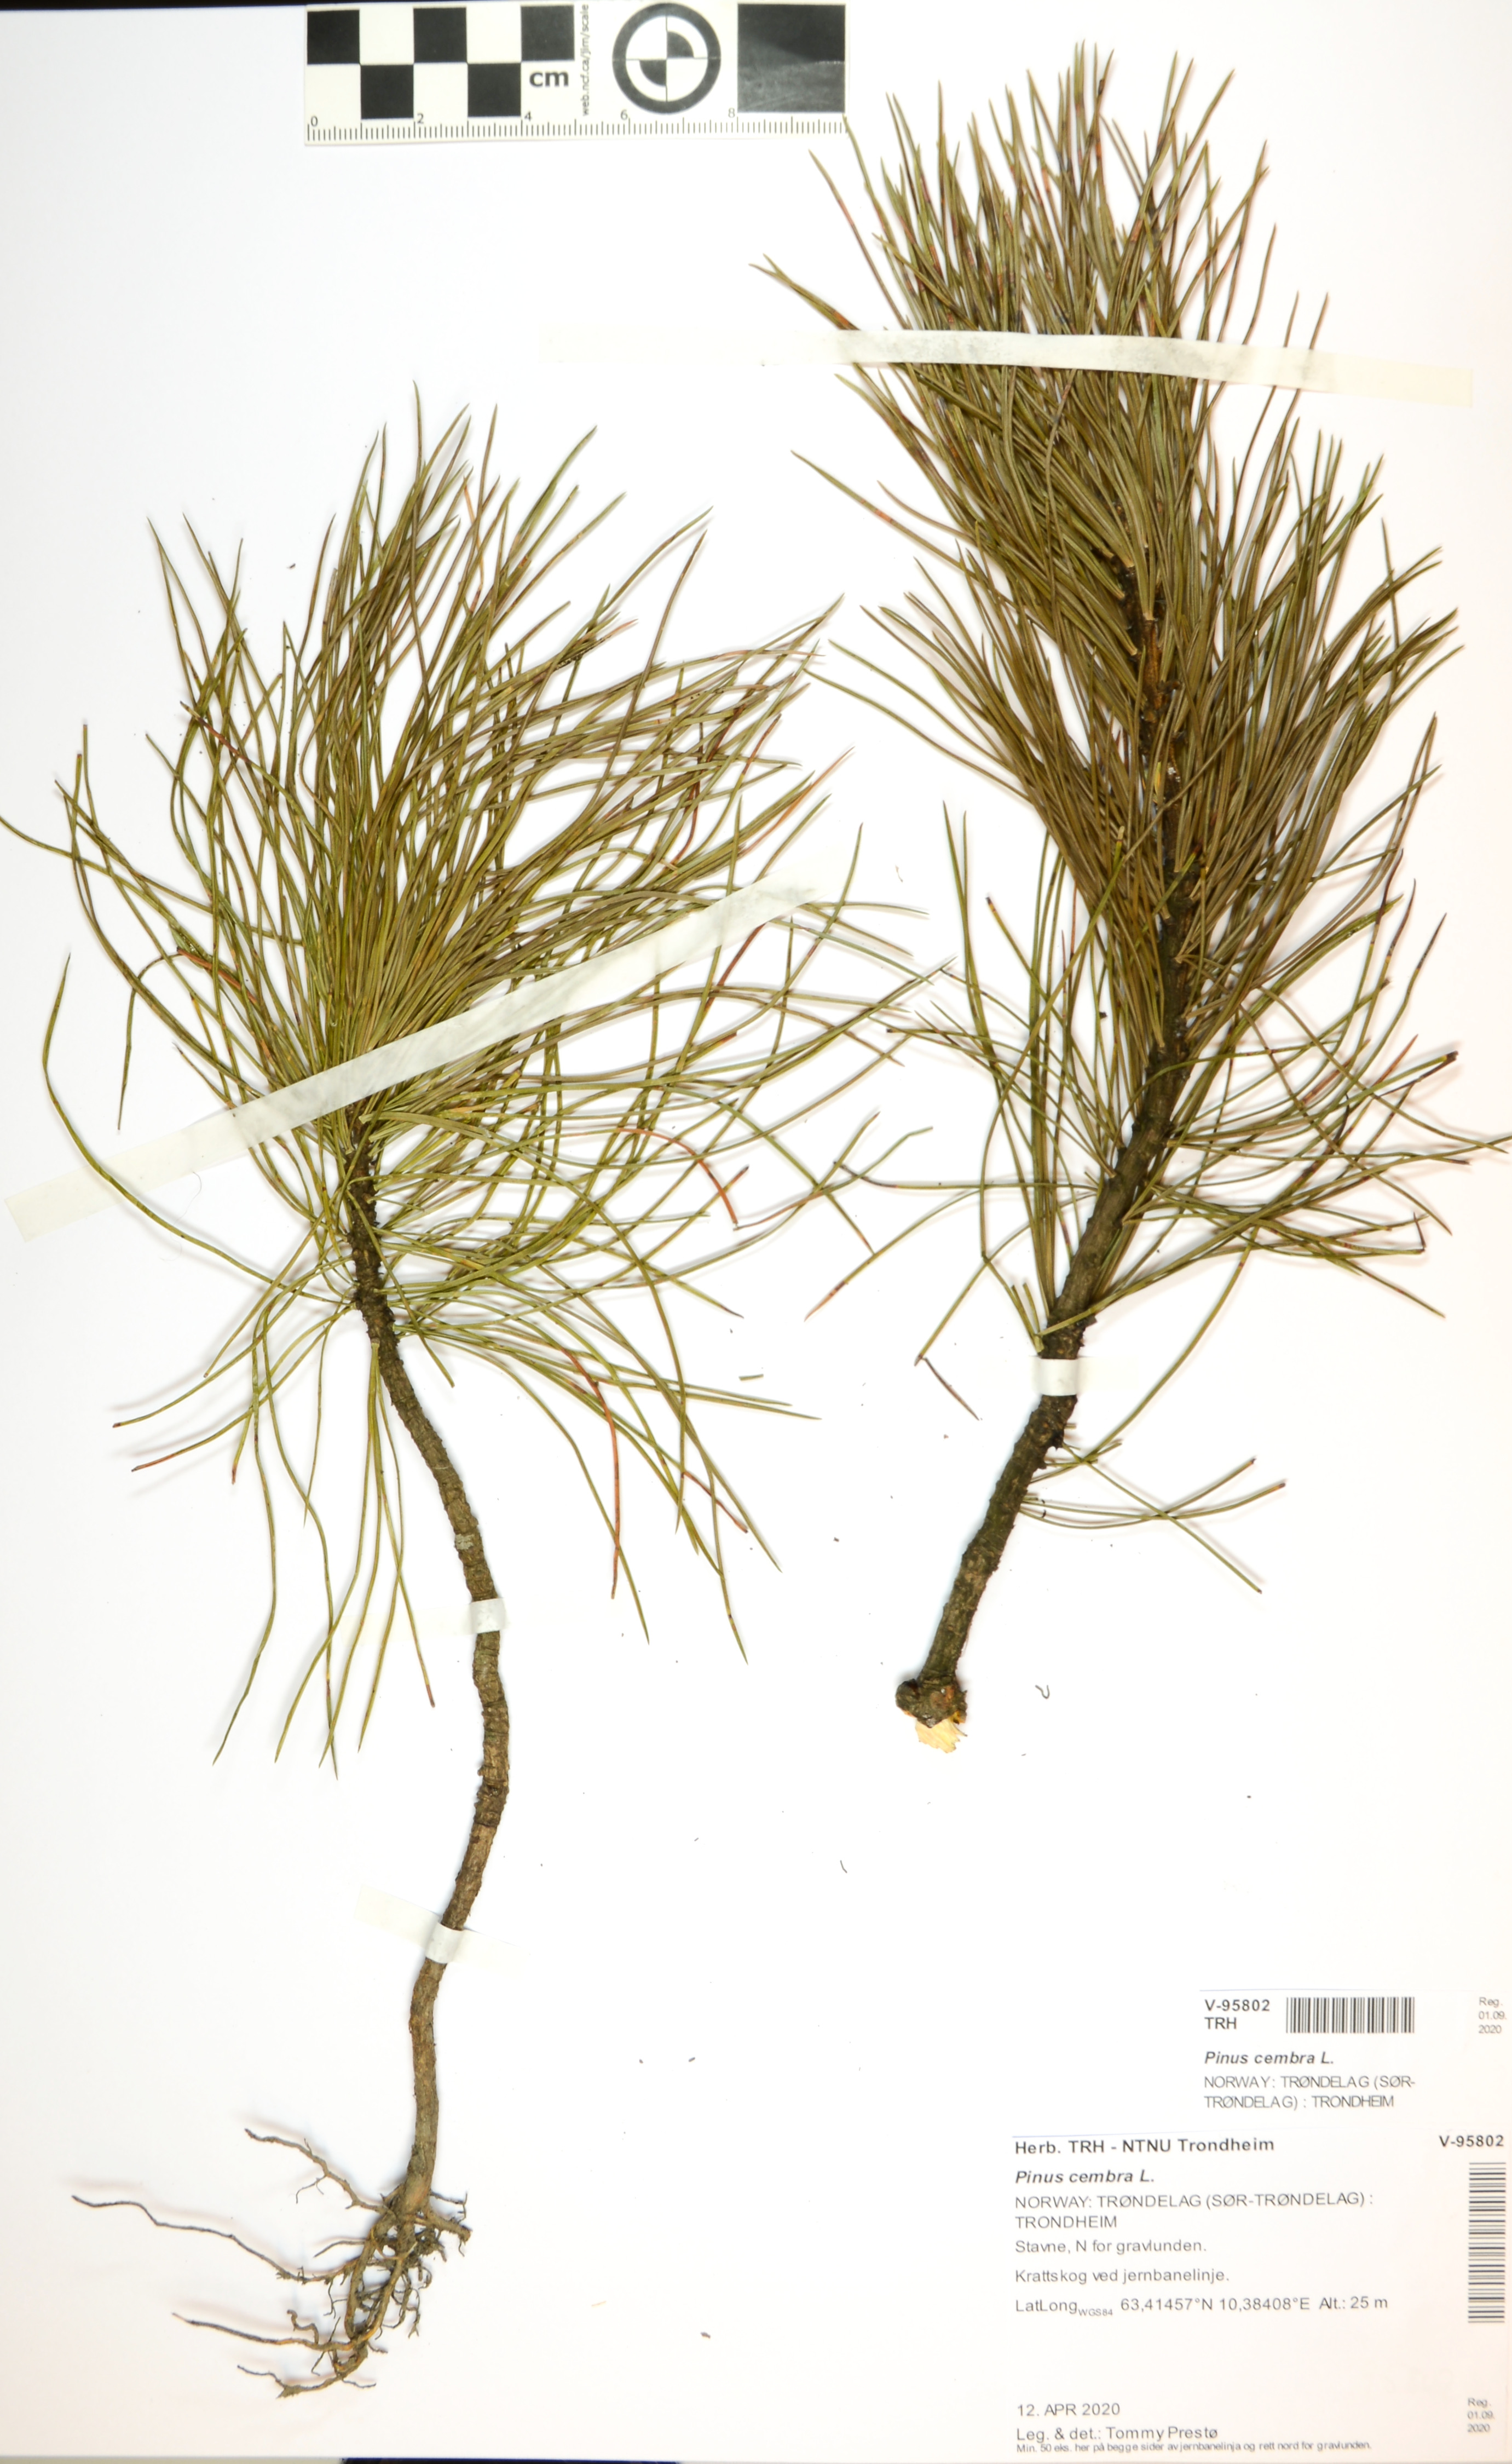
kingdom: Plantae
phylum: Tracheophyta
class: Pinopsida
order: Pinales
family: Pinaceae
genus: Pinus
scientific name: Pinus cembra
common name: Arolla pine
